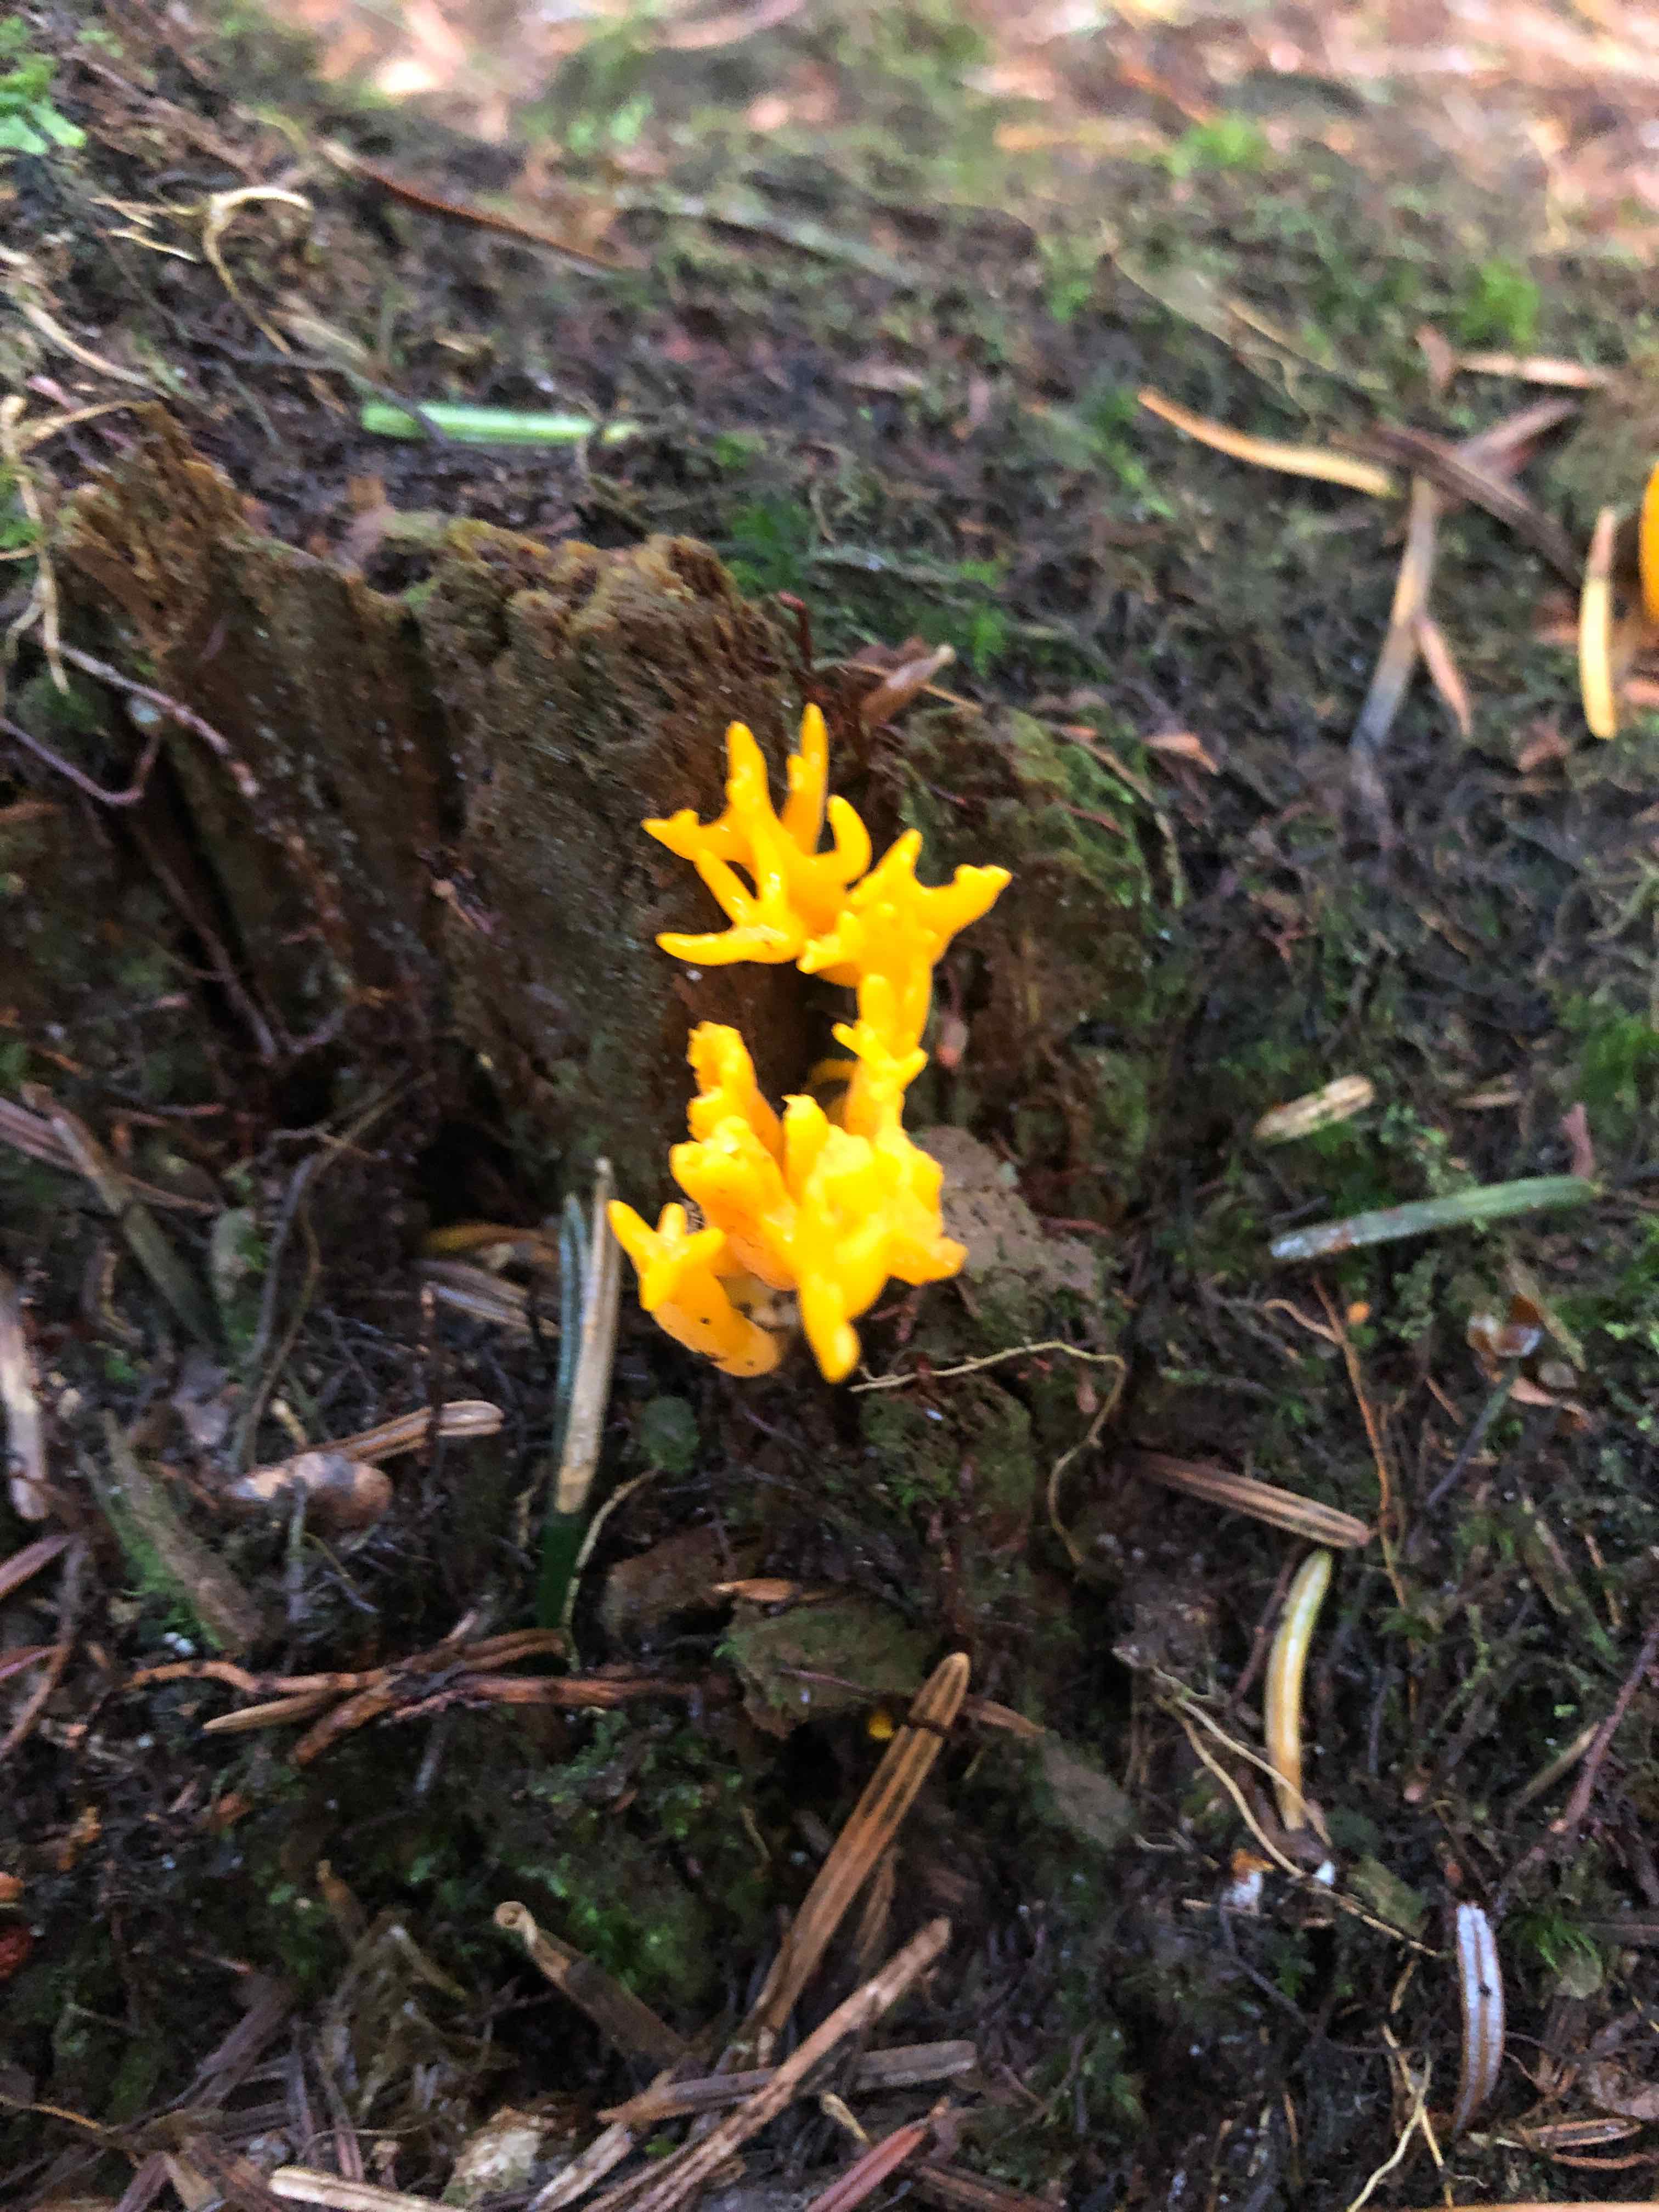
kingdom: Fungi
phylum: Basidiomycota
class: Dacrymycetes
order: Dacrymycetales
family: Dacrymycetaceae
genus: Calocera
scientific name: Calocera viscosa
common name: almindelig guldgaffel
